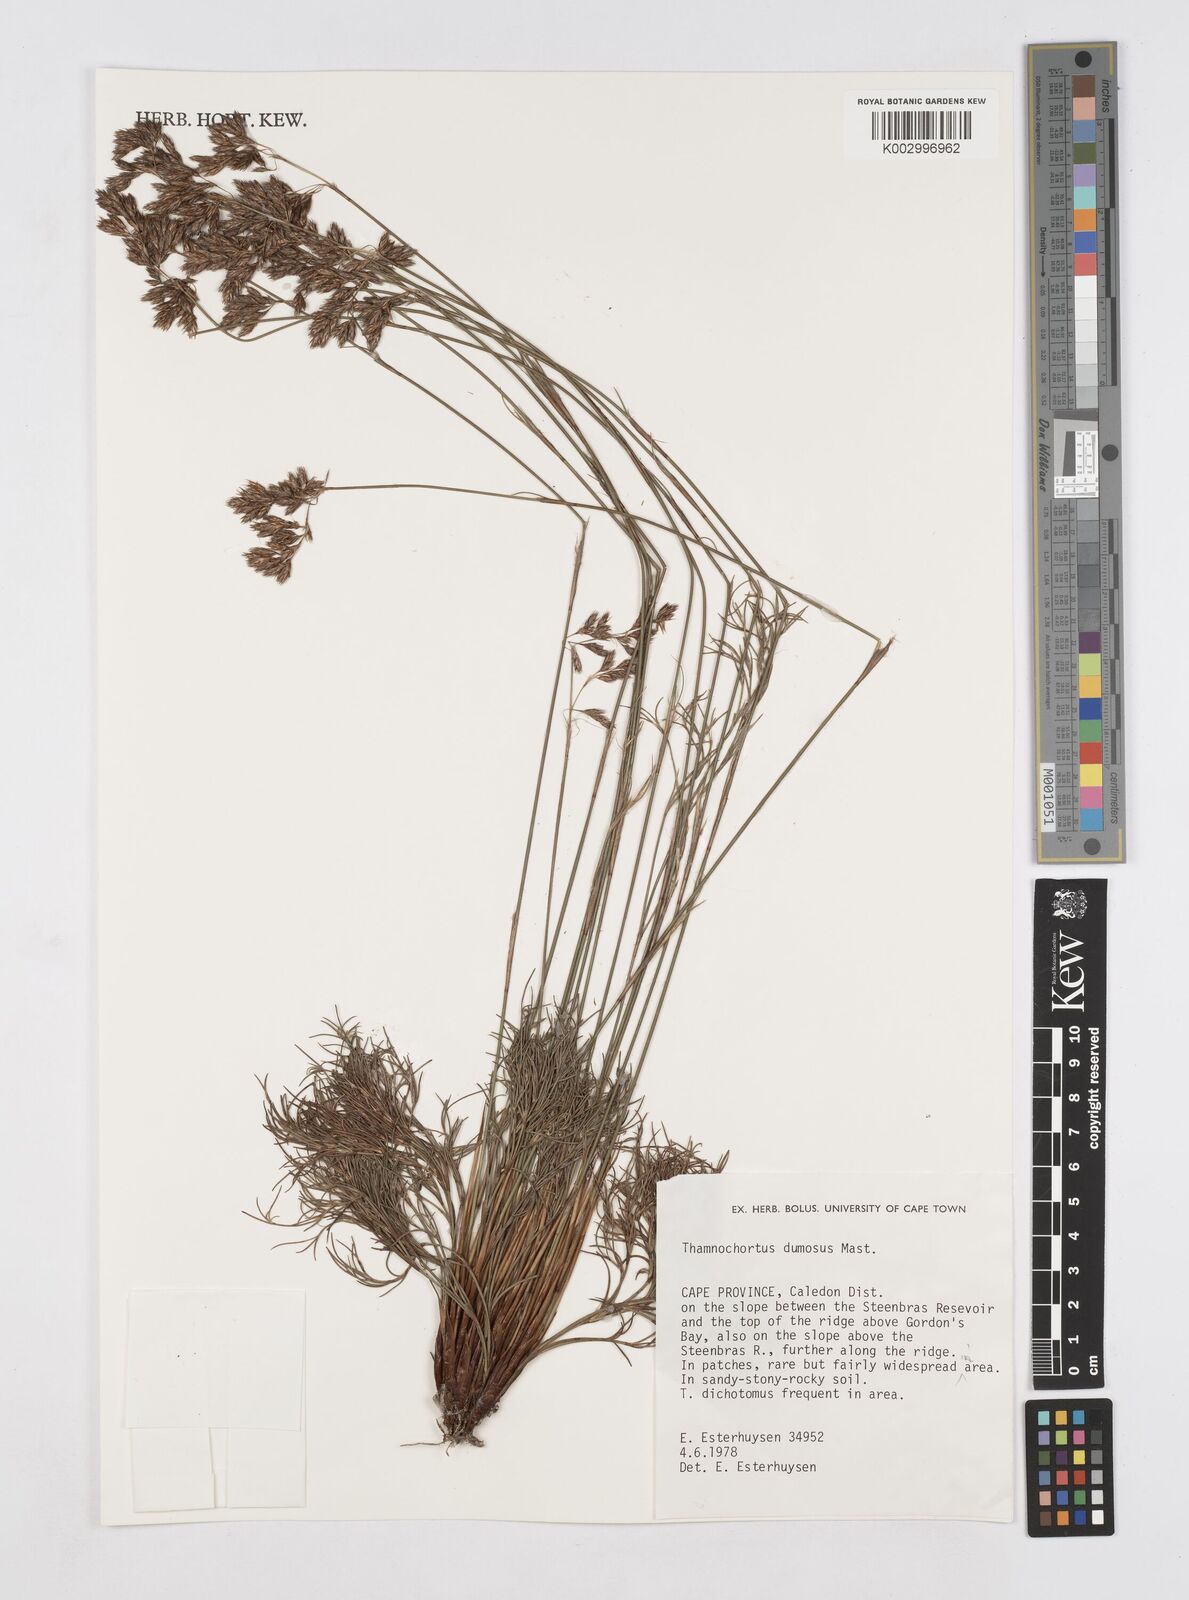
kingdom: Plantae
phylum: Tracheophyta
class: Liliopsida
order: Poales
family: Restionaceae
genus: Thamnochortus
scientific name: Thamnochortus dumosus
